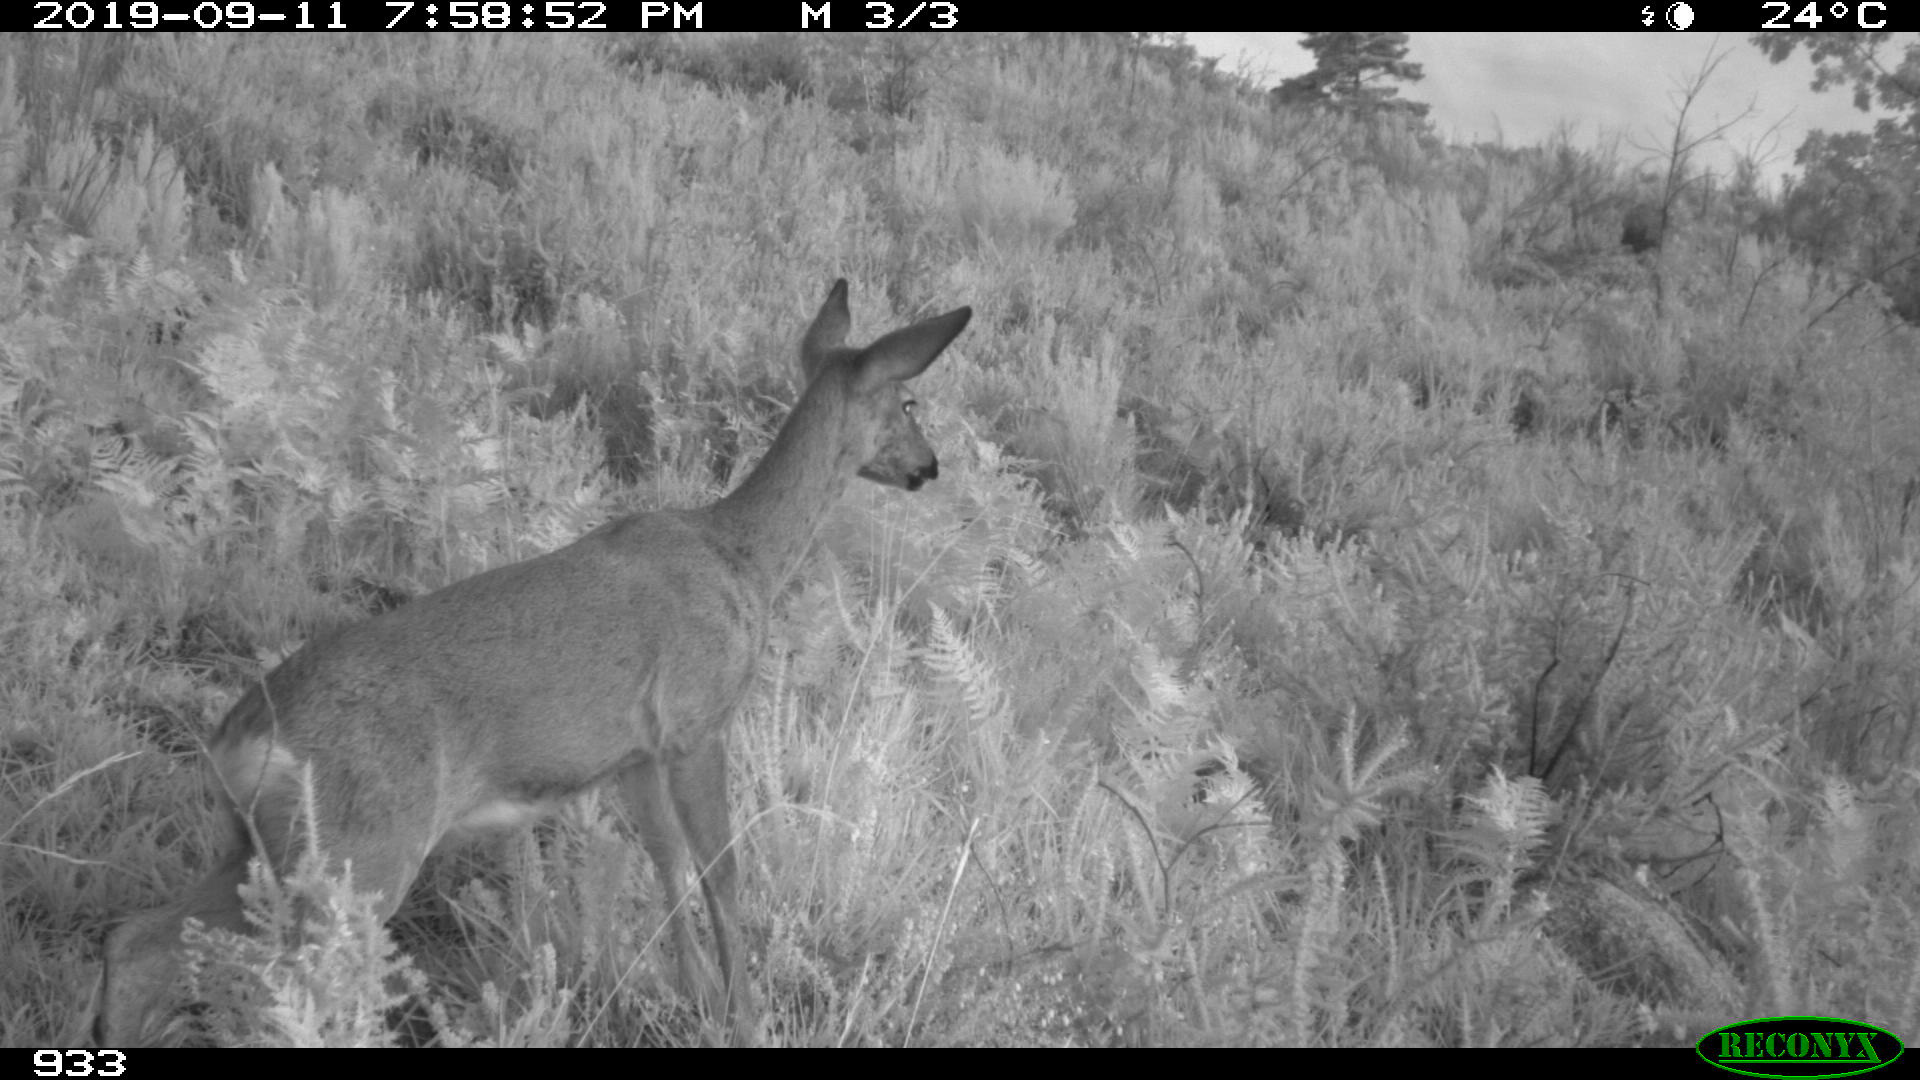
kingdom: Animalia
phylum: Chordata
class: Mammalia
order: Artiodactyla
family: Cervidae
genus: Capreolus
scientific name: Capreolus capreolus
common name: Western roe deer
